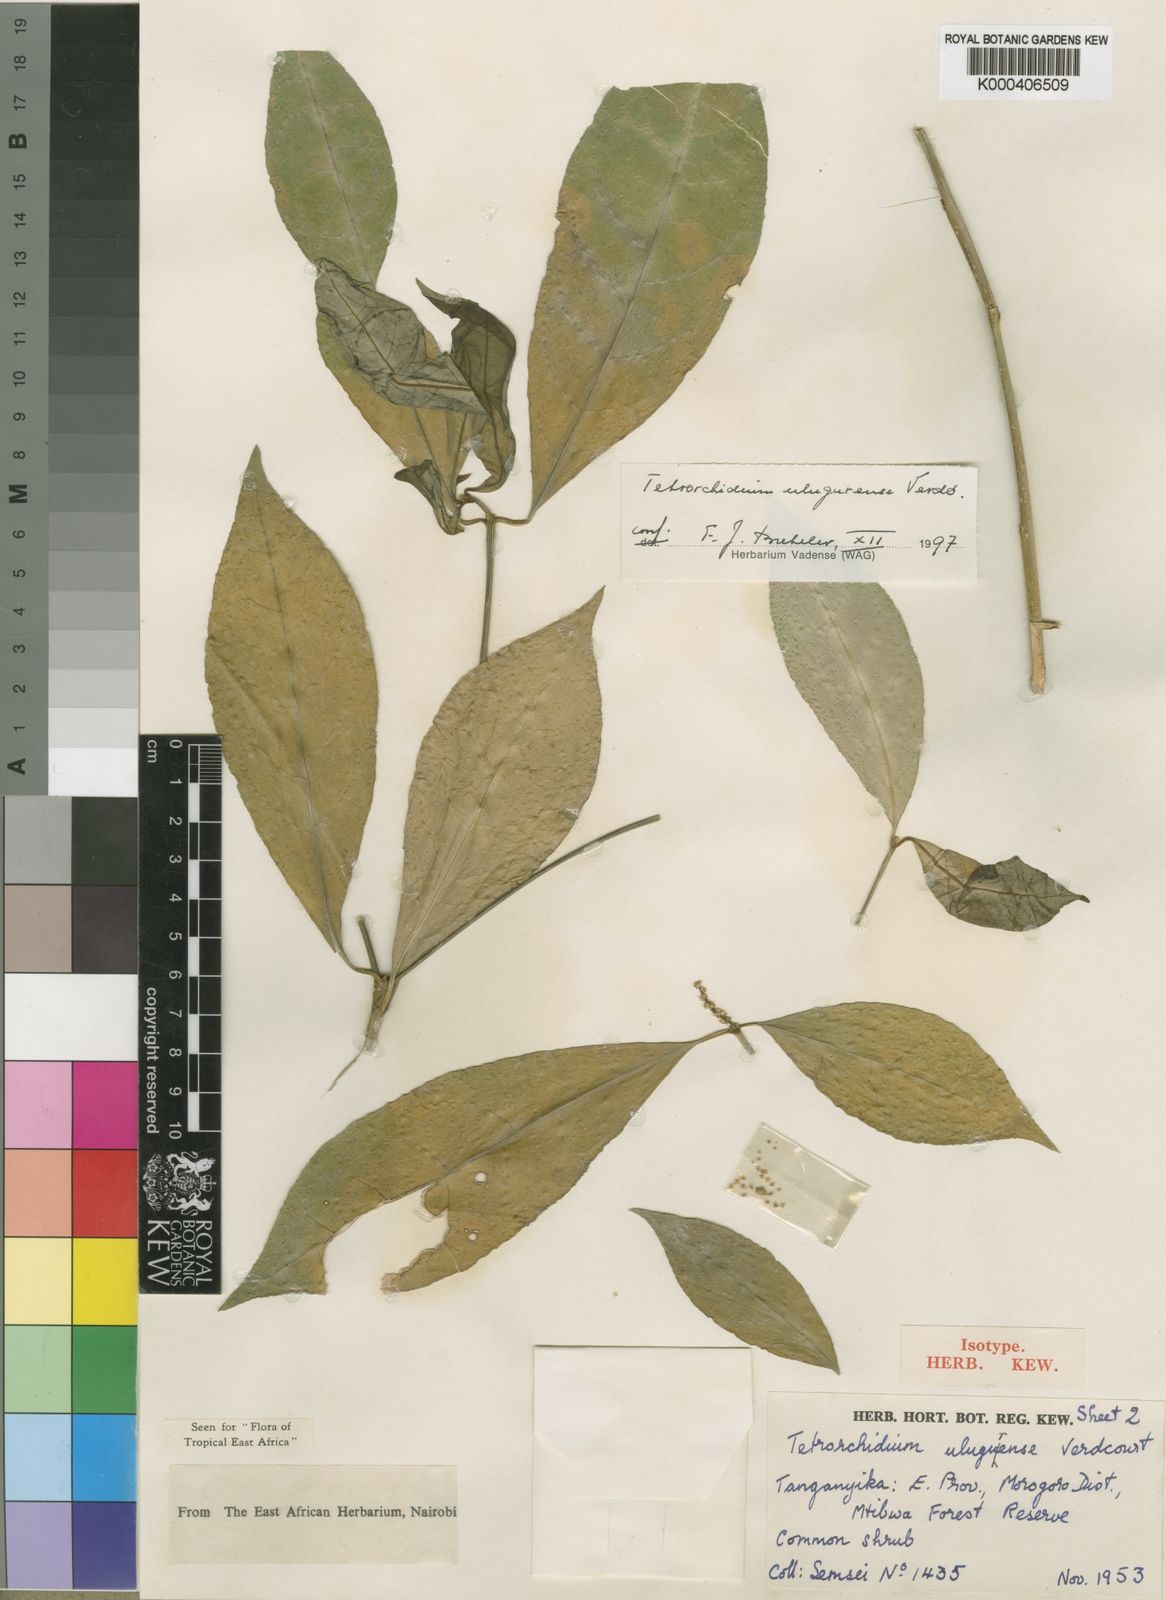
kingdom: Plantae
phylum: Tracheophyta
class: Magnoliopsida
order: Malpighiales
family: Euphorbiaceae
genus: Tetrorchidium
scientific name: Tetrorchidium
